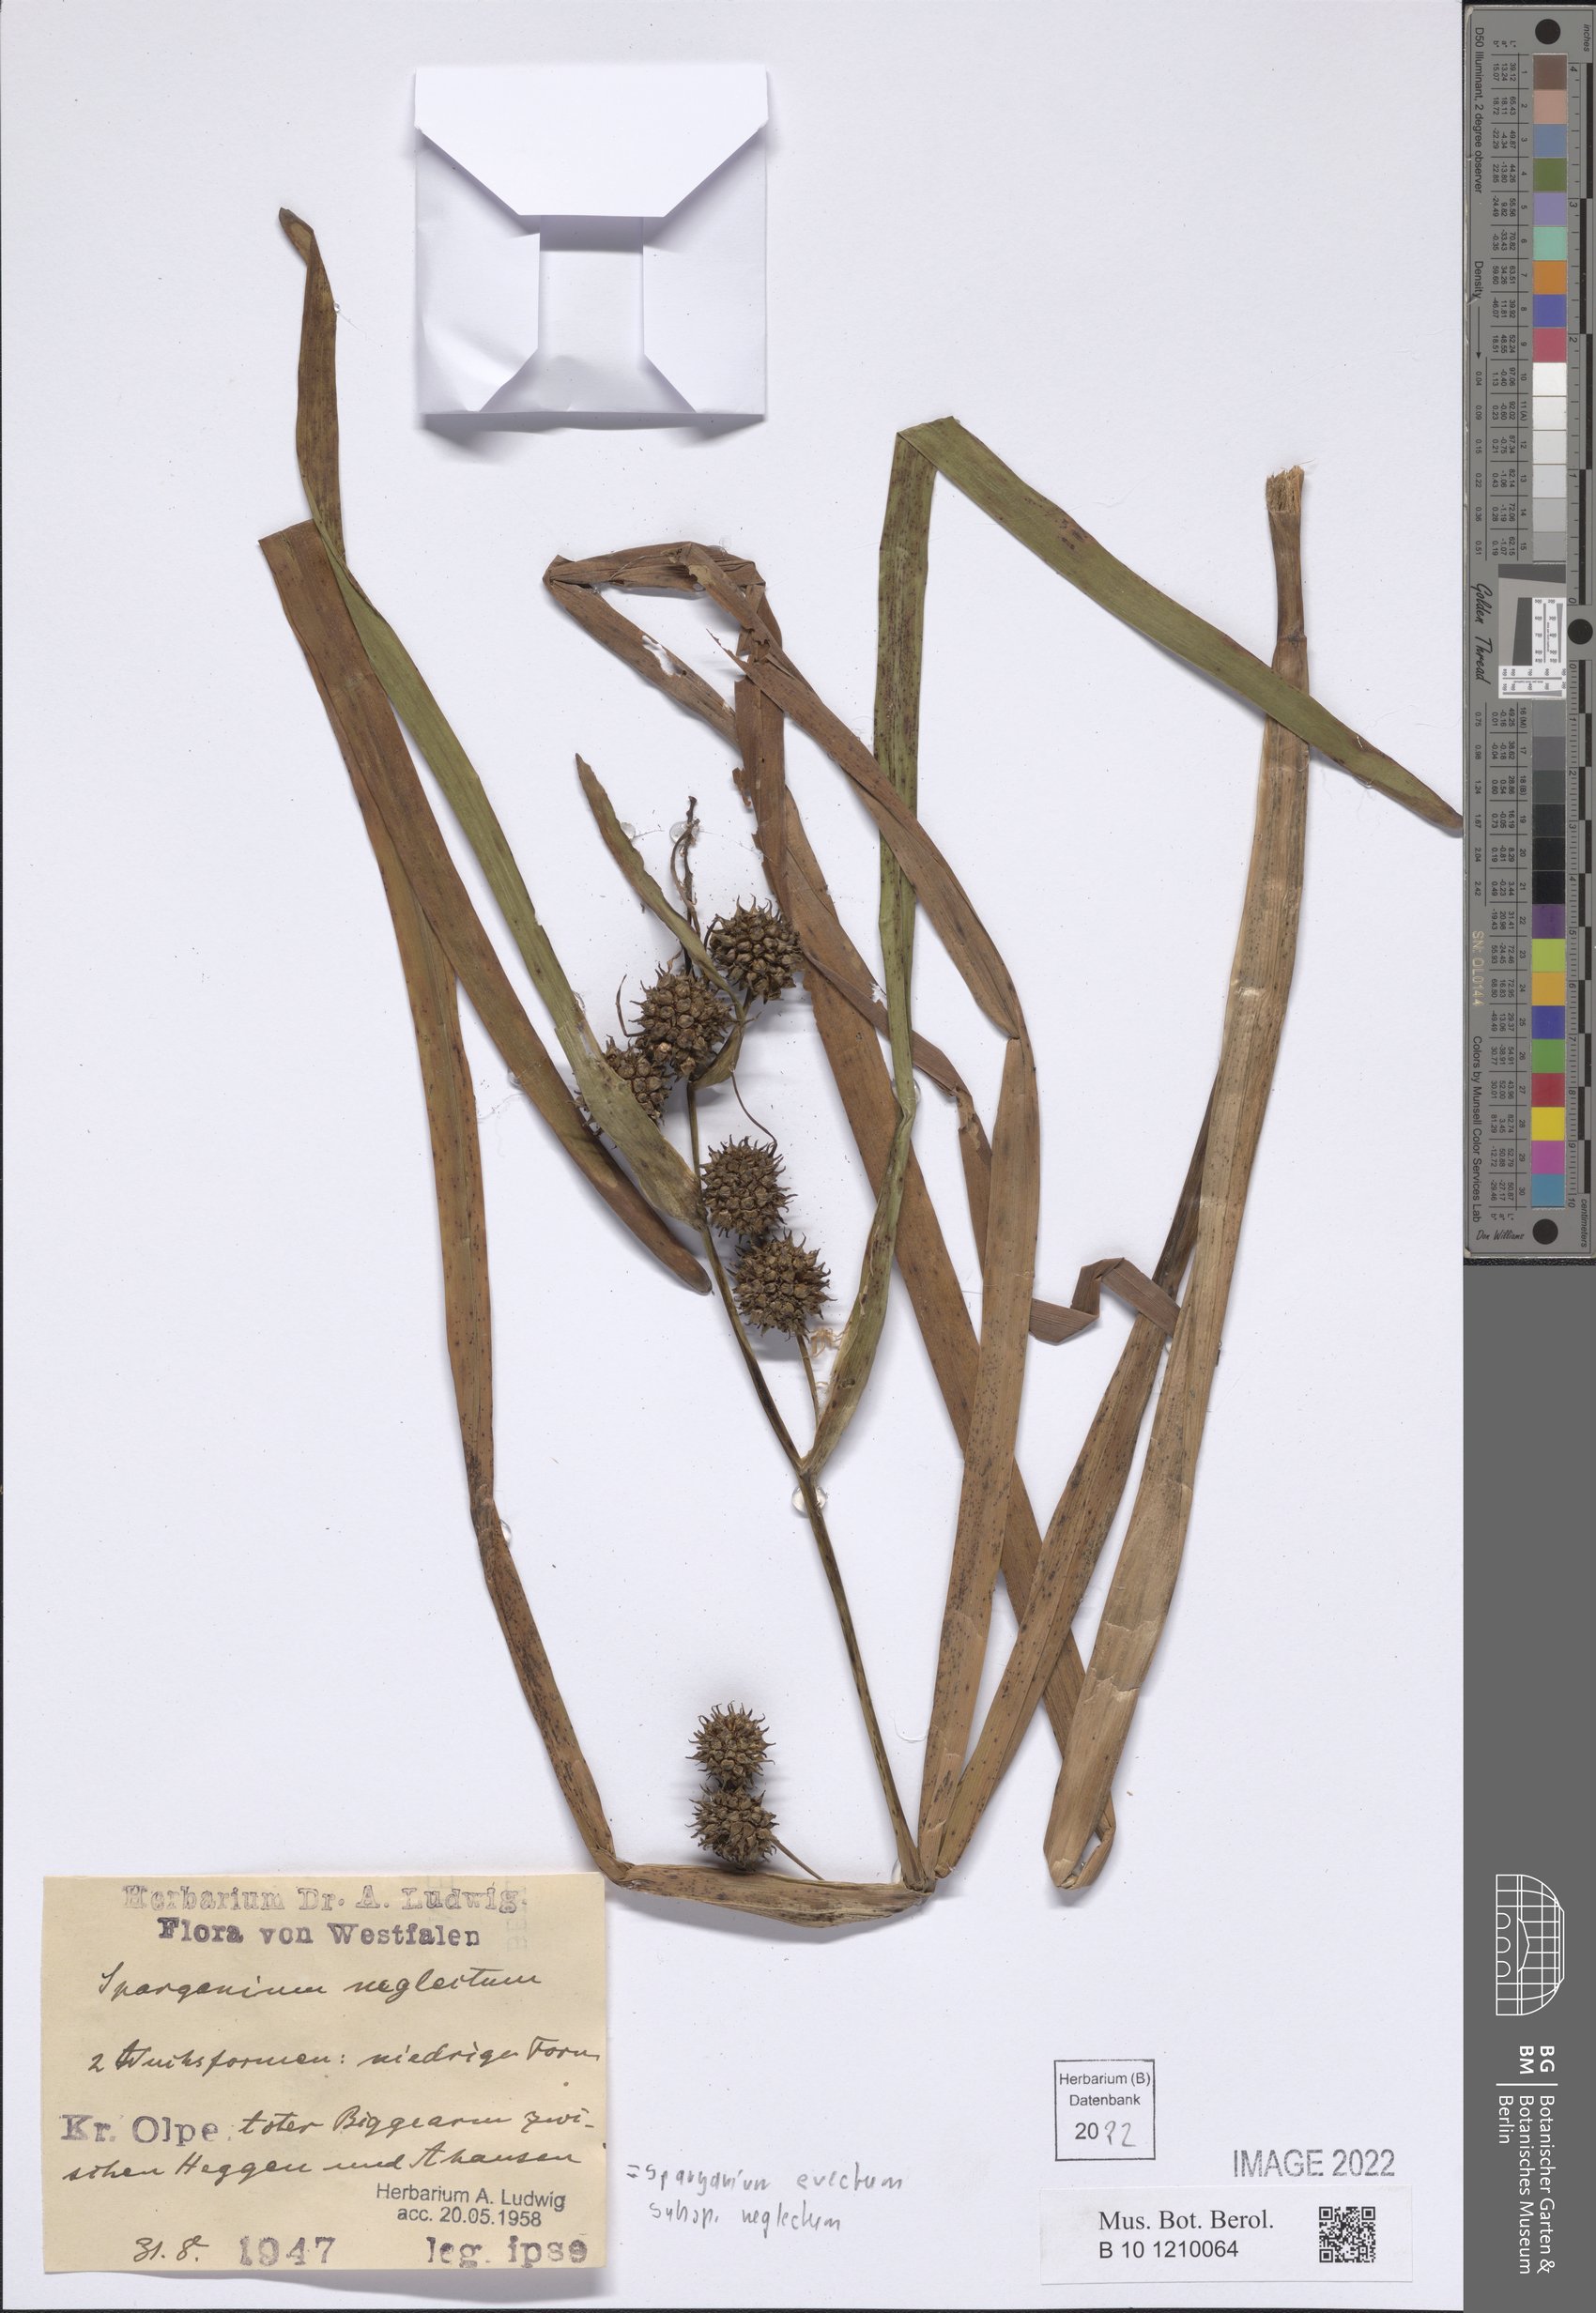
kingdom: Plantae
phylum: Tracheophyta
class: Liliopsida
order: Poales
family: Typhaceae
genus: Sparganium
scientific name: Sparganium erectum
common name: Branched bur-reed
